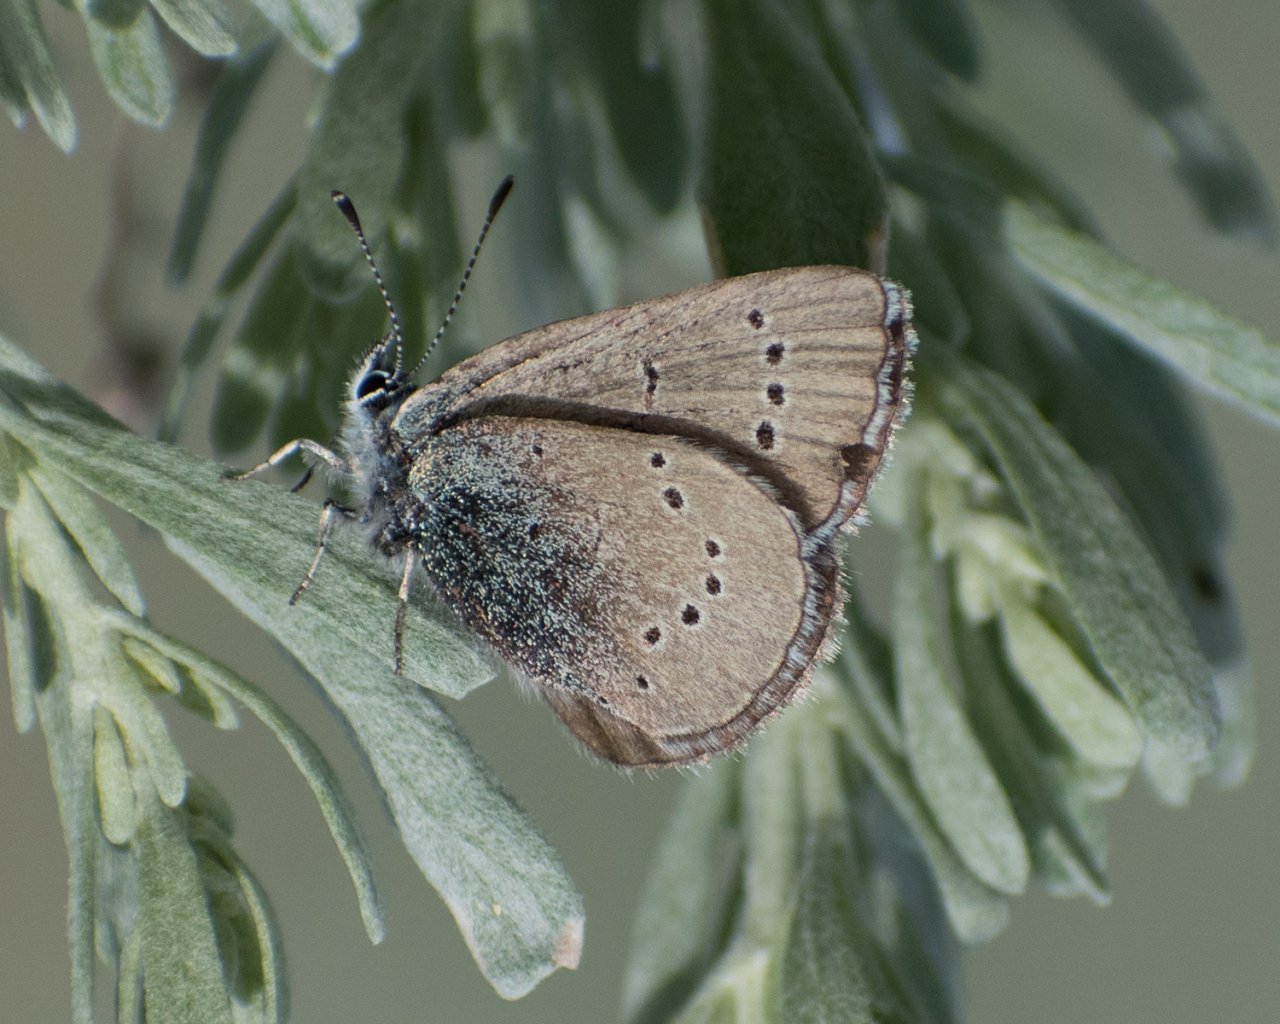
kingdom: Animalia
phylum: Arthropoda
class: Insecta
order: Lepidoptera
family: Lycaenidae
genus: Glaucopsyche
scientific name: Glaucopsyche lygdamus
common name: Silvery Blue
